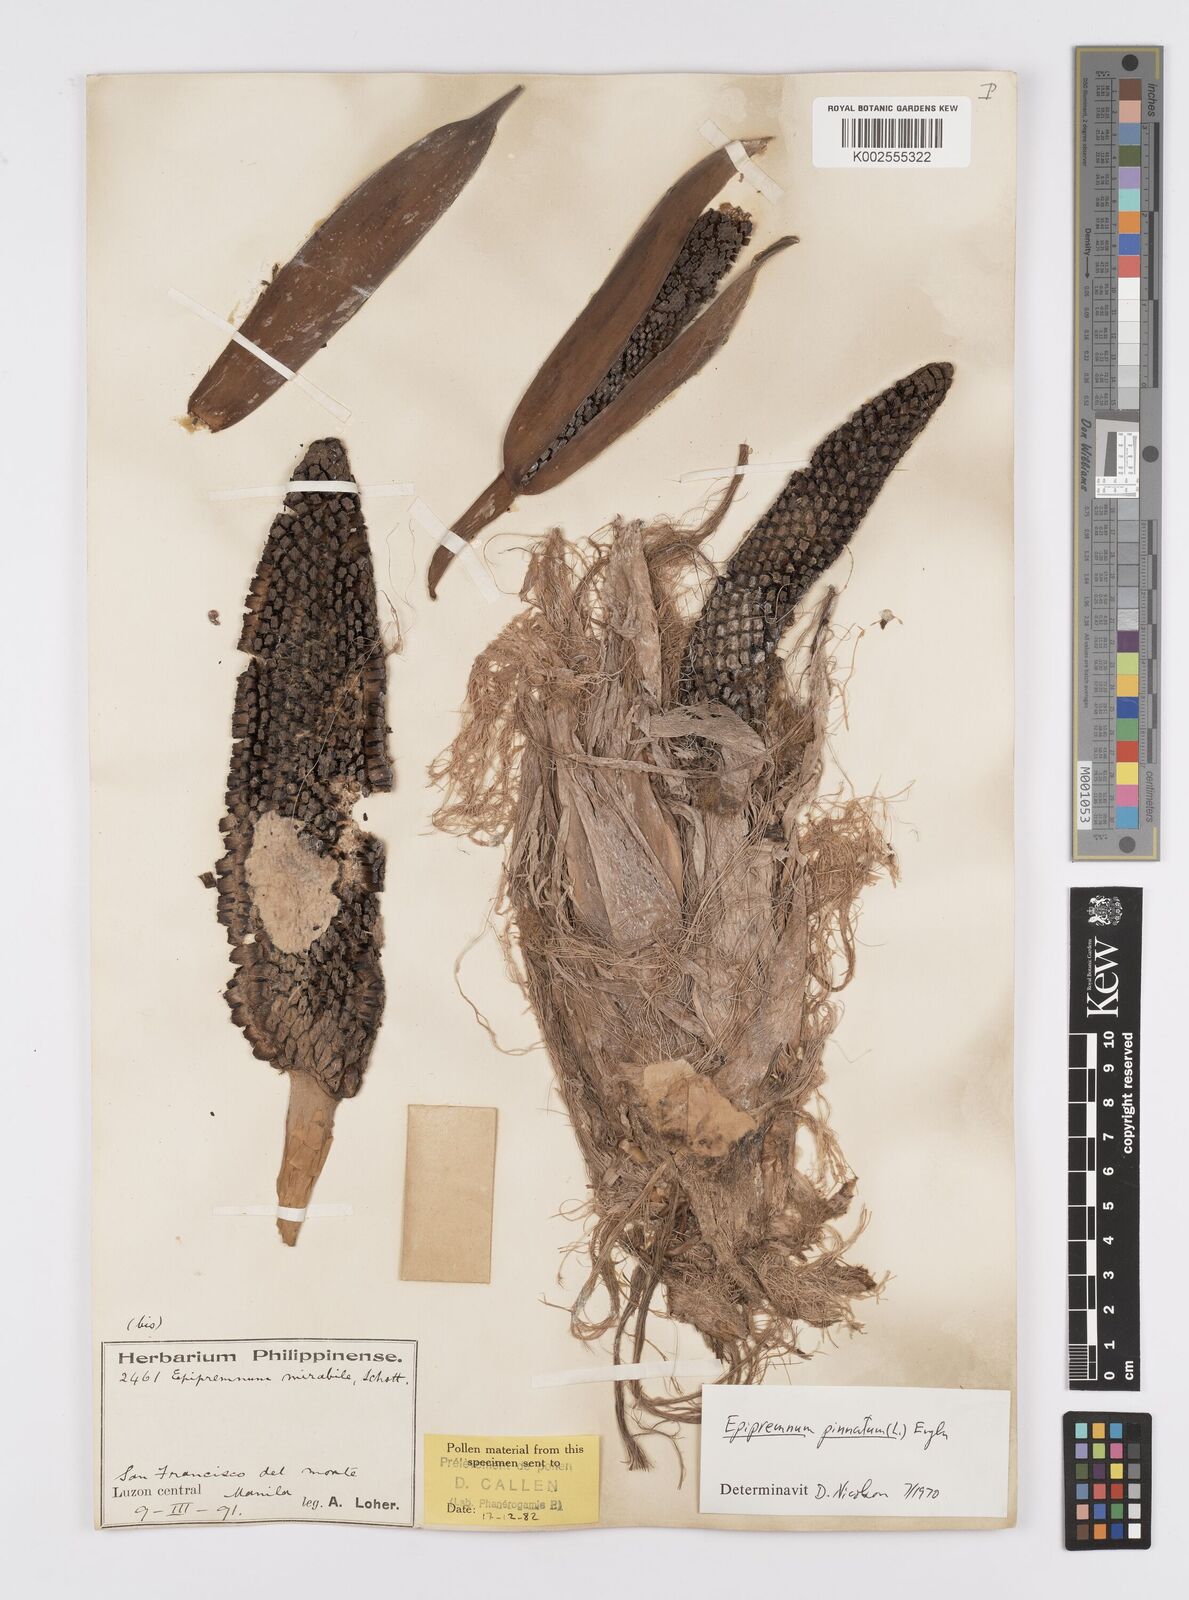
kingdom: Plantae
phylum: Tracheophyta
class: Liliopsida
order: Alismatales
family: Araceae
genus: Epipremnum
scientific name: Epipremnum pinnatum
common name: Centipede tongavine
